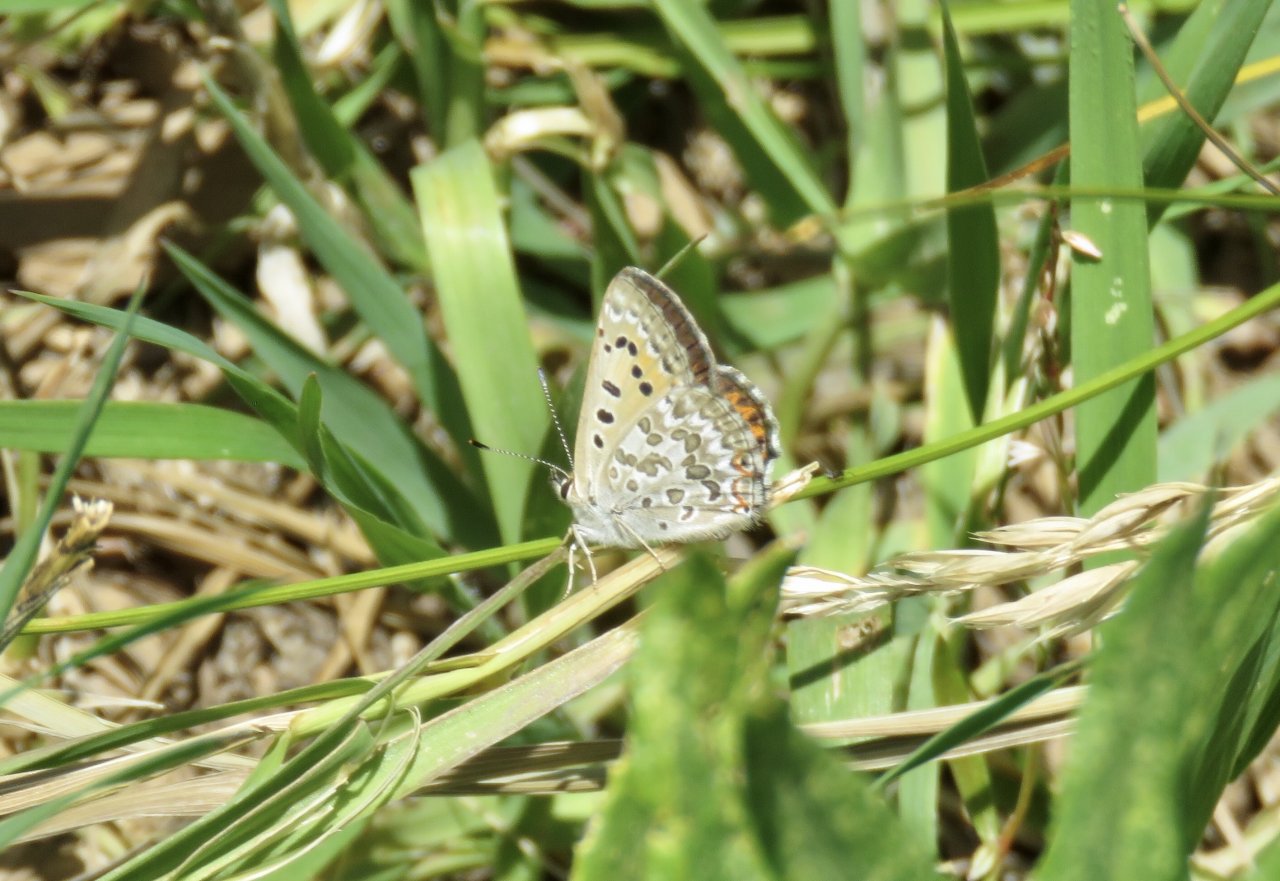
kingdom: Animalia
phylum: Arthropoda
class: Insecta
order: Lepidoptera
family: Lycaenidae
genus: Lycaena
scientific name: Lycaena editha
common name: Edith's Copper
